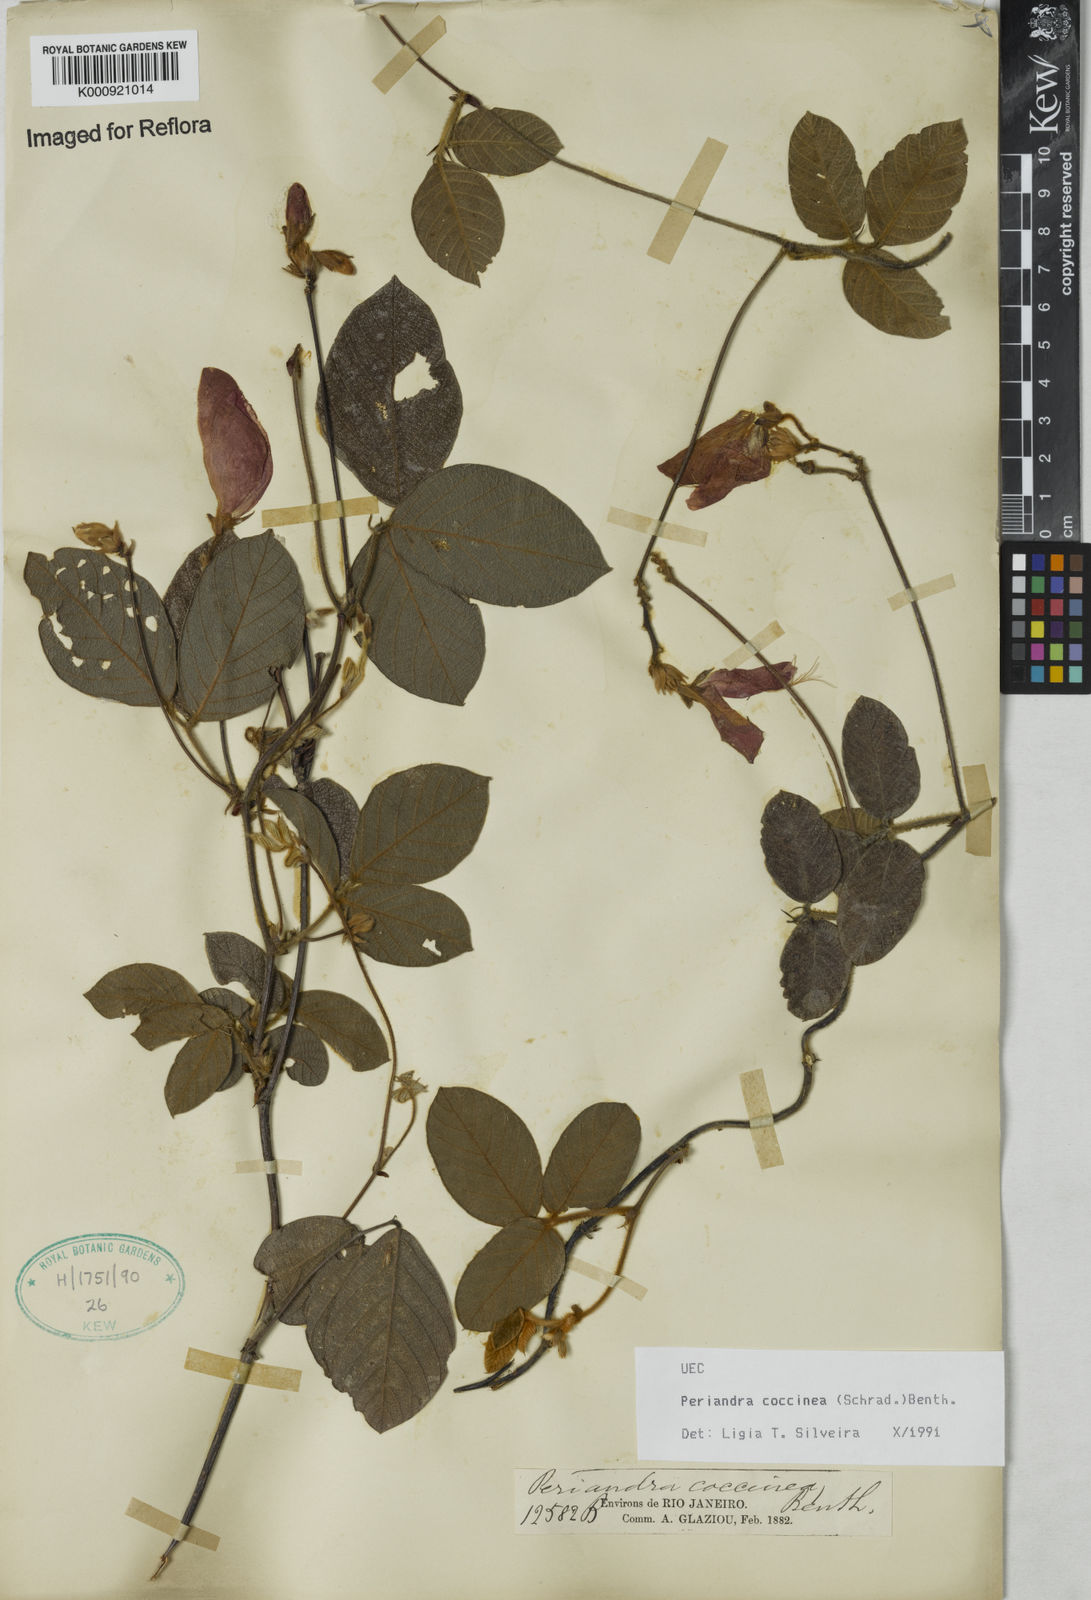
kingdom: Plantae
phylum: Tracheophyta
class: Magnoliopsida
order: Fabales
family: Fabaceae
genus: Periandra
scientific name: Periandra coccinea
